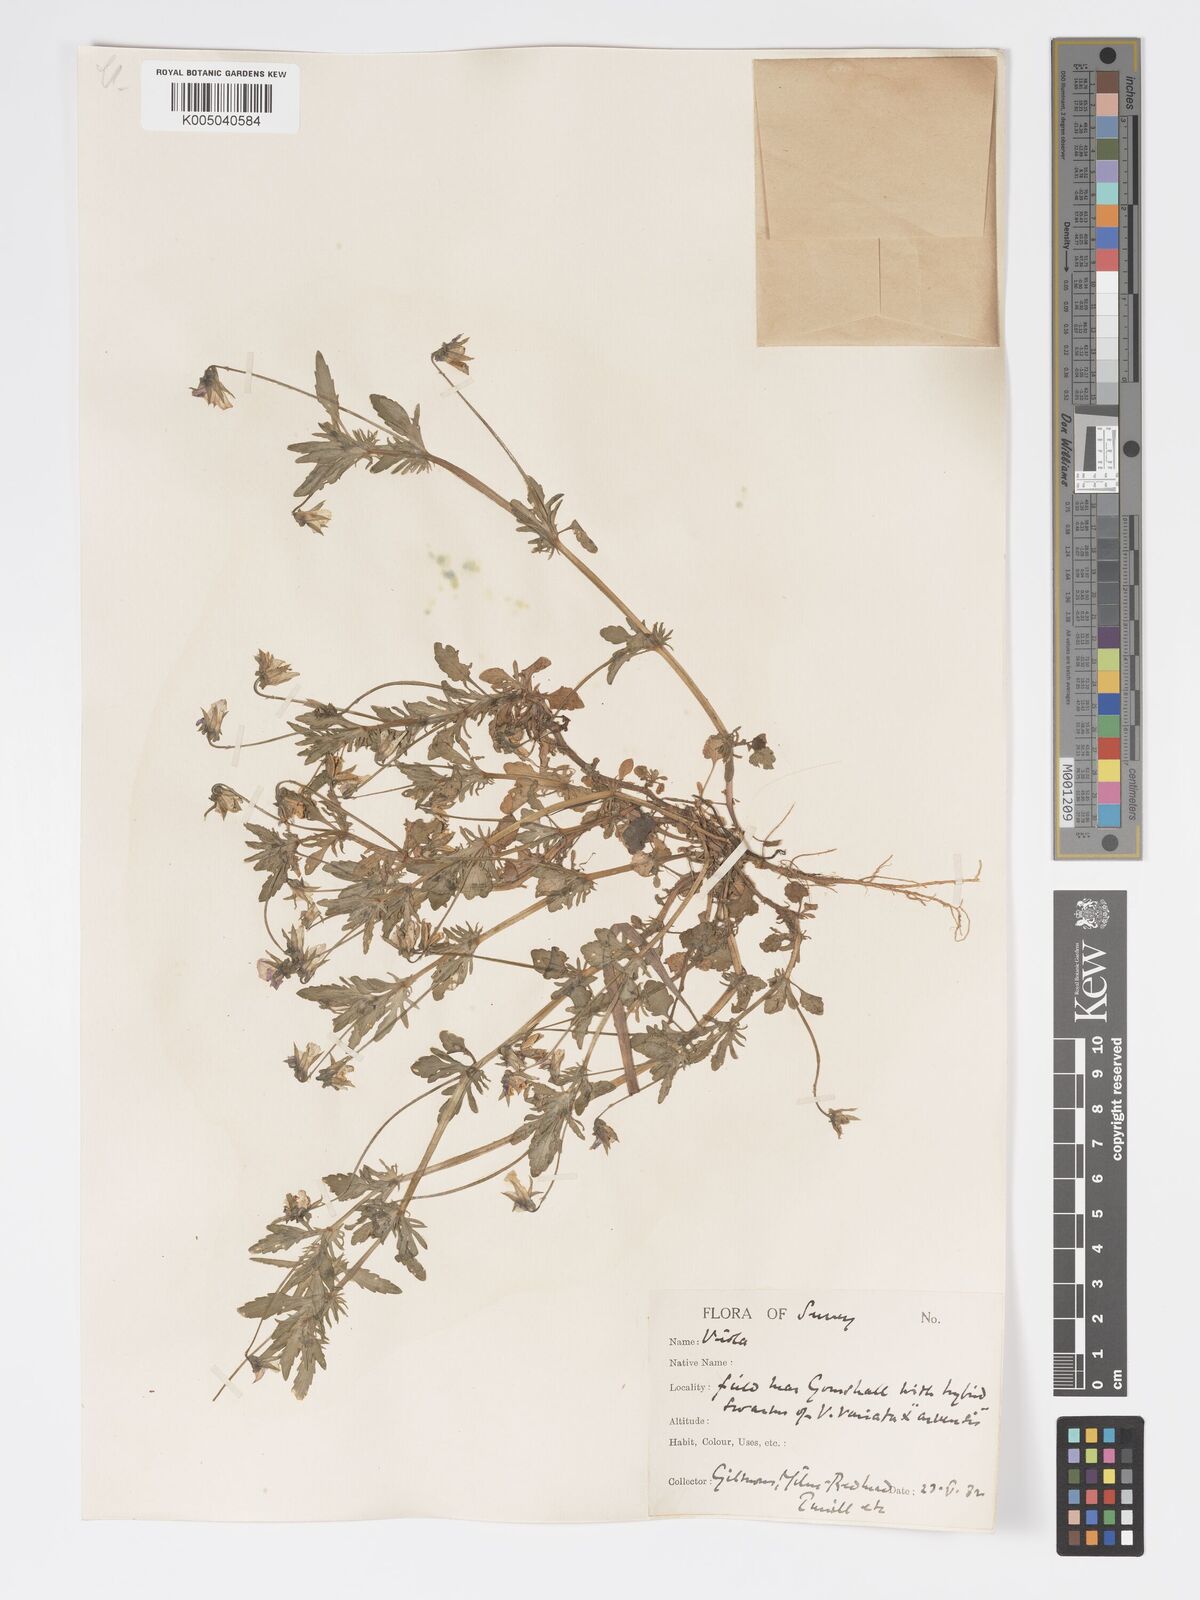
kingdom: Plantae
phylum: Tracheophyta
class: Magnoliopsida
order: Malpighiales
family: Violaceae
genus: Viola
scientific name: Viola
